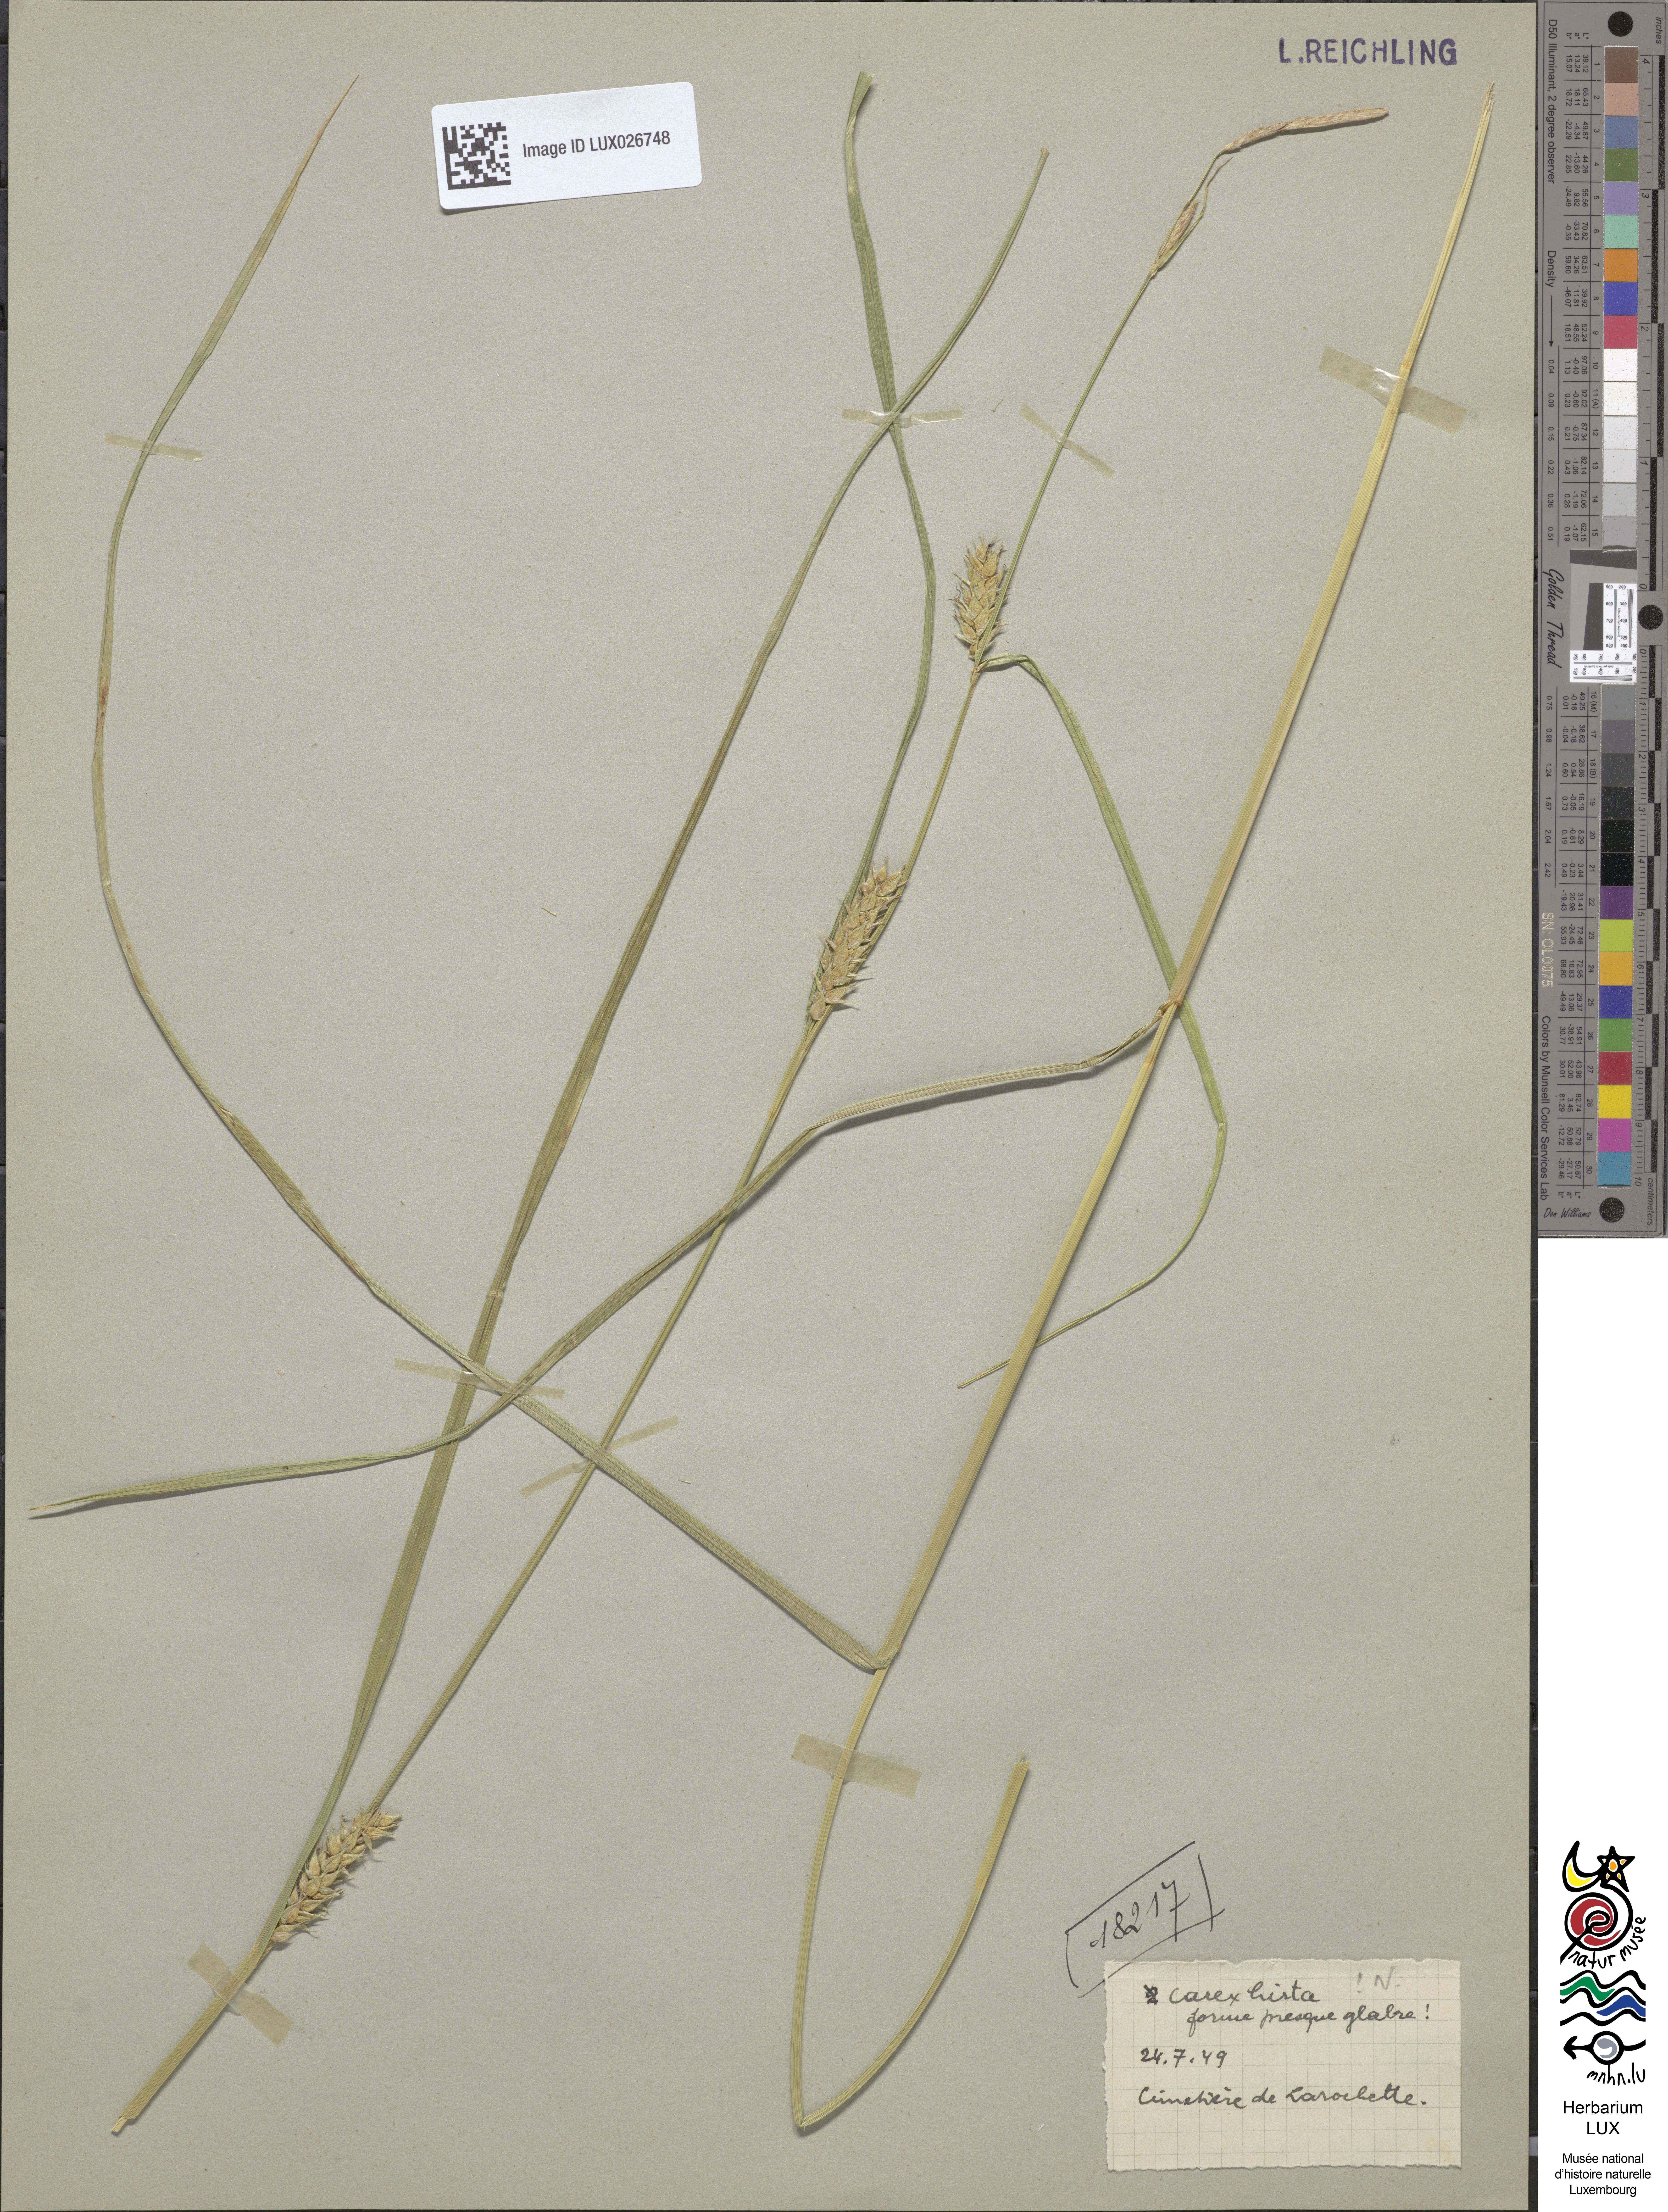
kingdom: Plantae
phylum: Tracheophyta
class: Liliopsida
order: Poales
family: Cyperaceae
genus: Carex
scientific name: Carex hirta
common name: Hairy sedge
